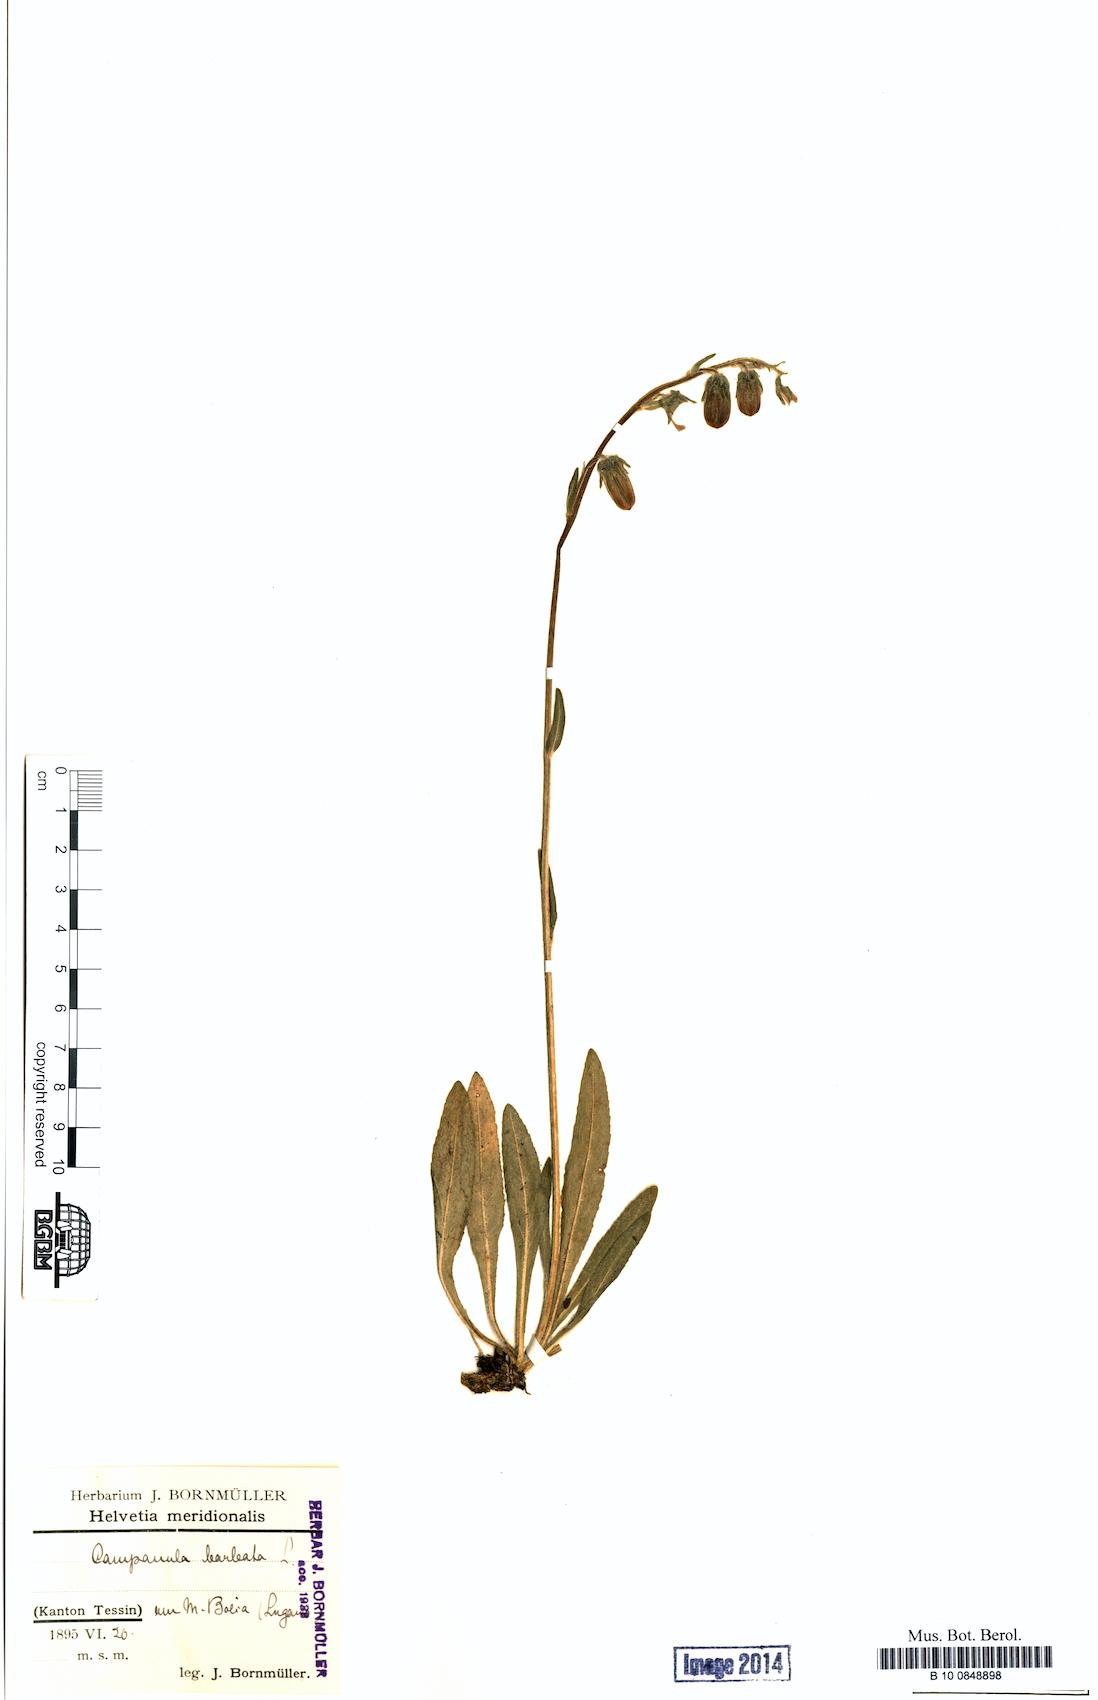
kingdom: Plantae
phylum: Tracheophyta
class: Magnoliopsida
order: Asterales
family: Campanulaceae
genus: Campanula
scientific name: Campanula barbata
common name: Bearded bellflower
